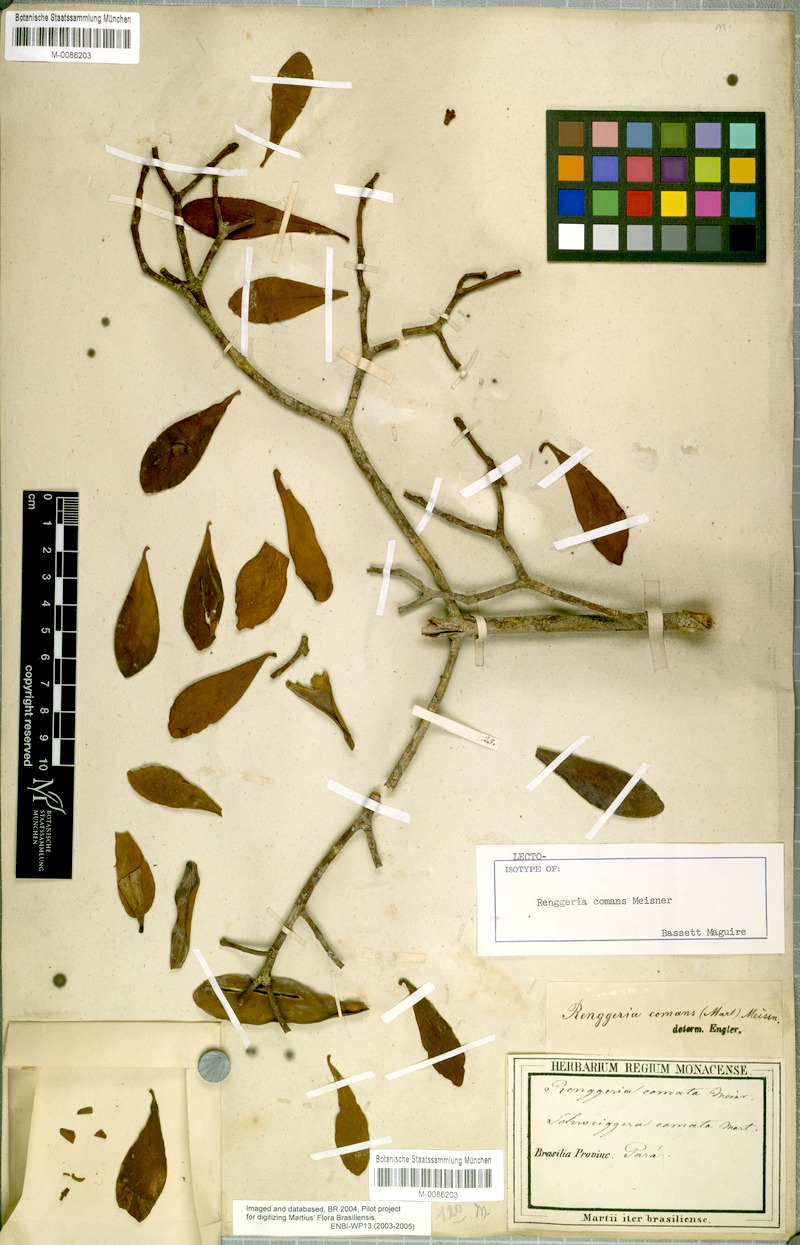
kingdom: Plantae
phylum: Tracheophyta
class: Magnoliopsida
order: Malpighiales
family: Clusiaceae
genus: Clusia
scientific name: Clusia comans
